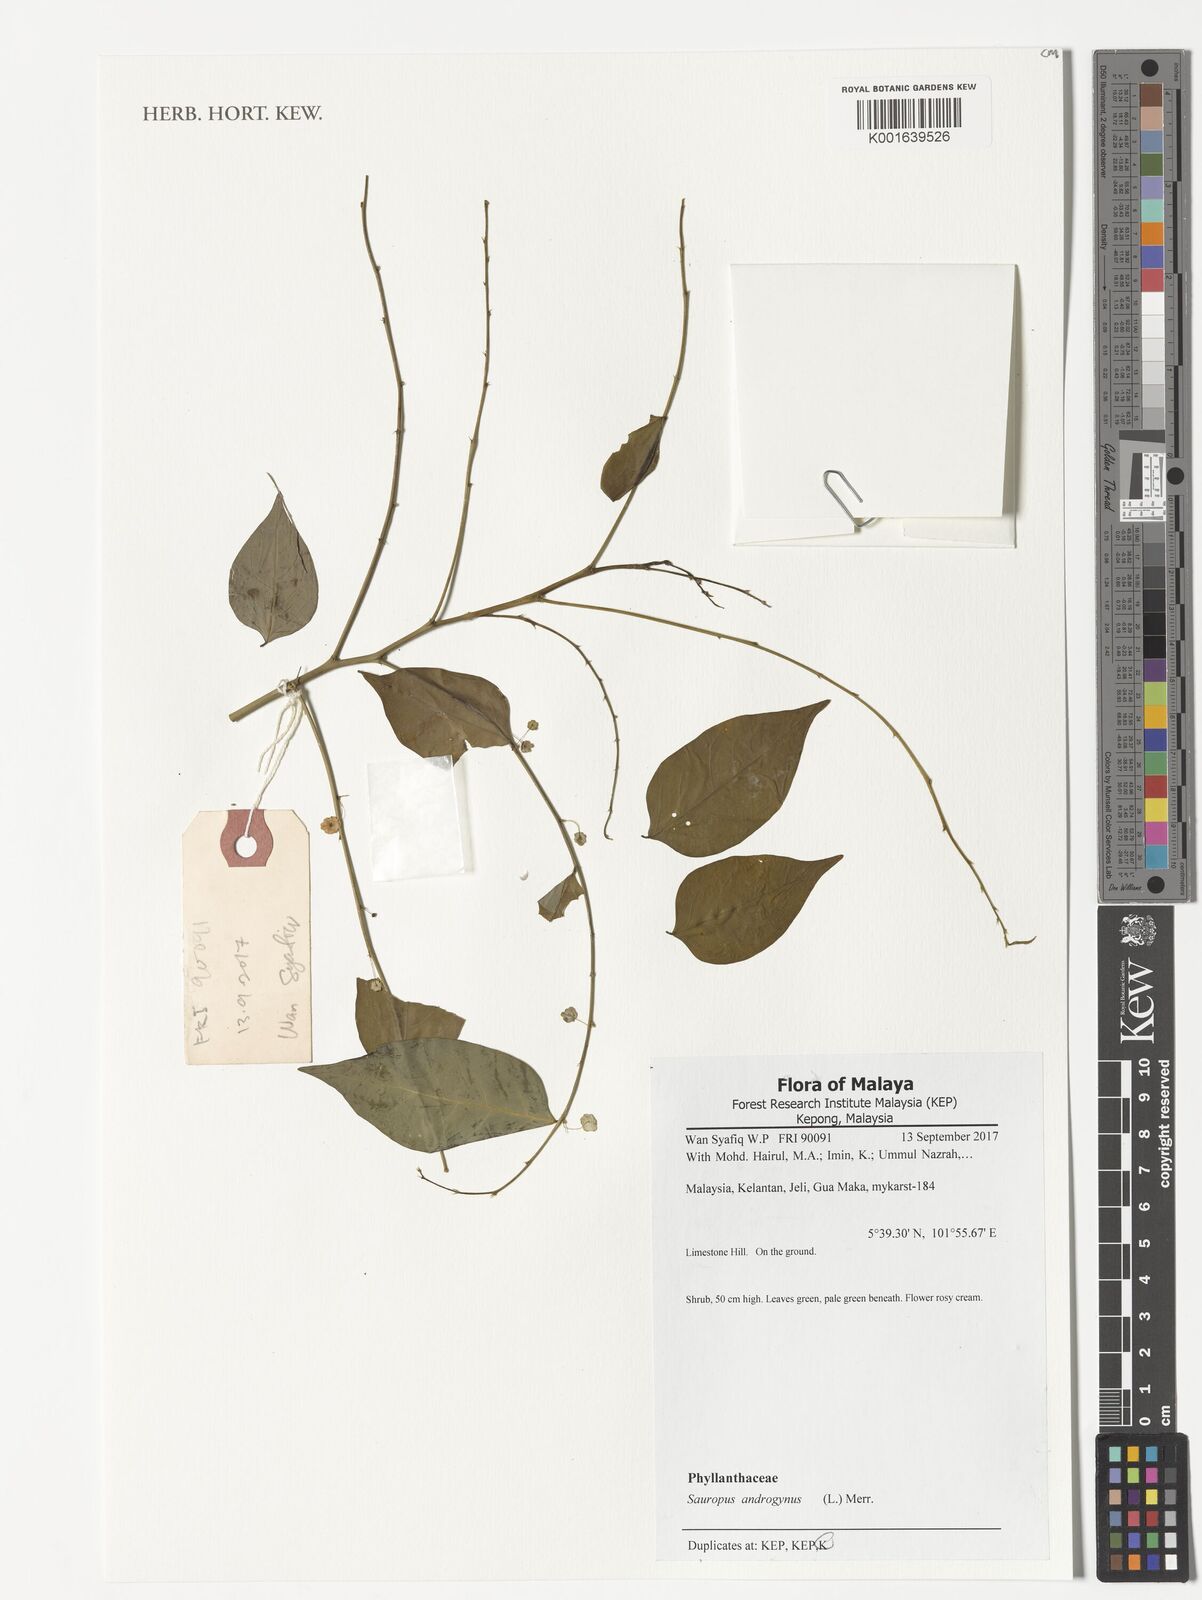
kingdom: Plantae
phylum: Tracheophyta
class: Magnoliopsida
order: Malpighiales
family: Phyllanthaceae
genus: Breynia
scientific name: Breynia androgyna
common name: Star gooseberry
